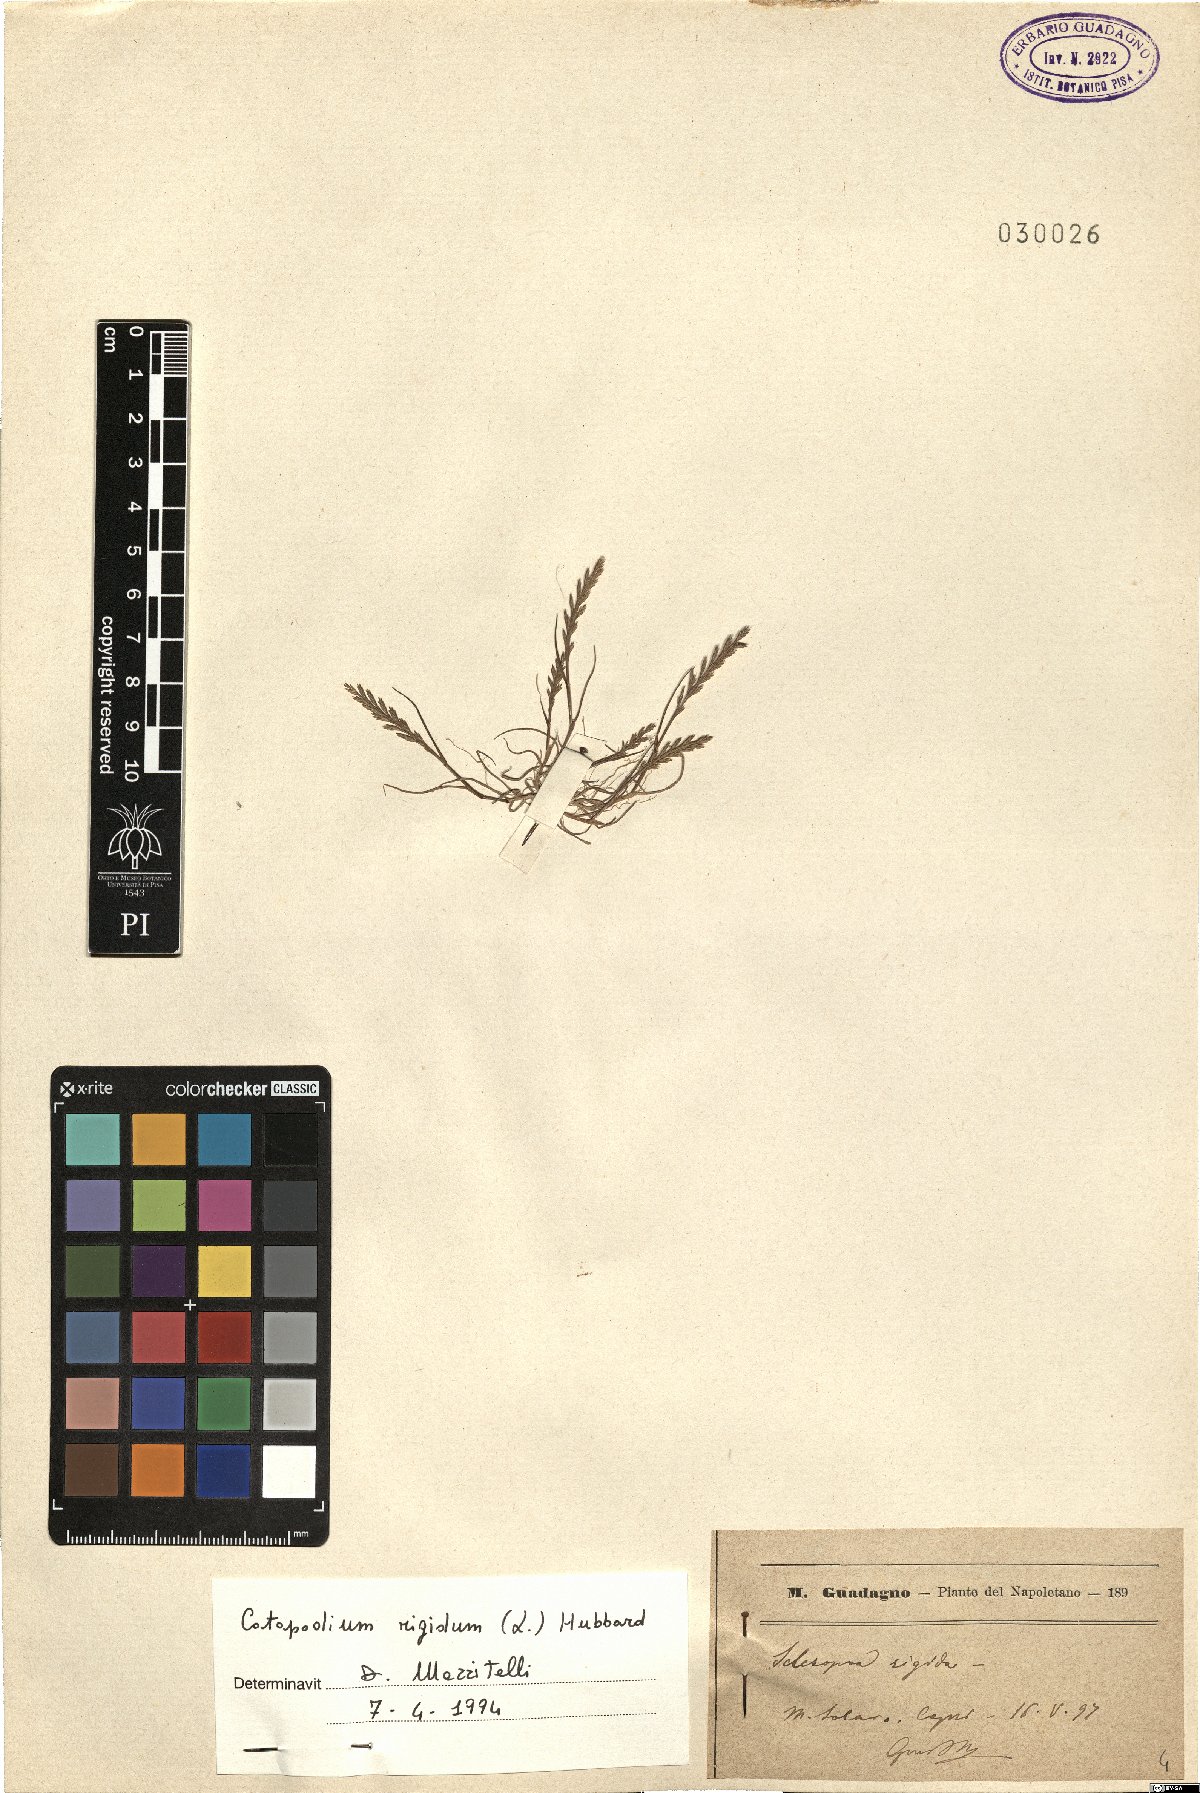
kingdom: Plantae
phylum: Tracheophyta
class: Liliopsida
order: Poales
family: Poaceae
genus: Catapodium
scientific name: Catapodium rigidum
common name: Fern-grass
